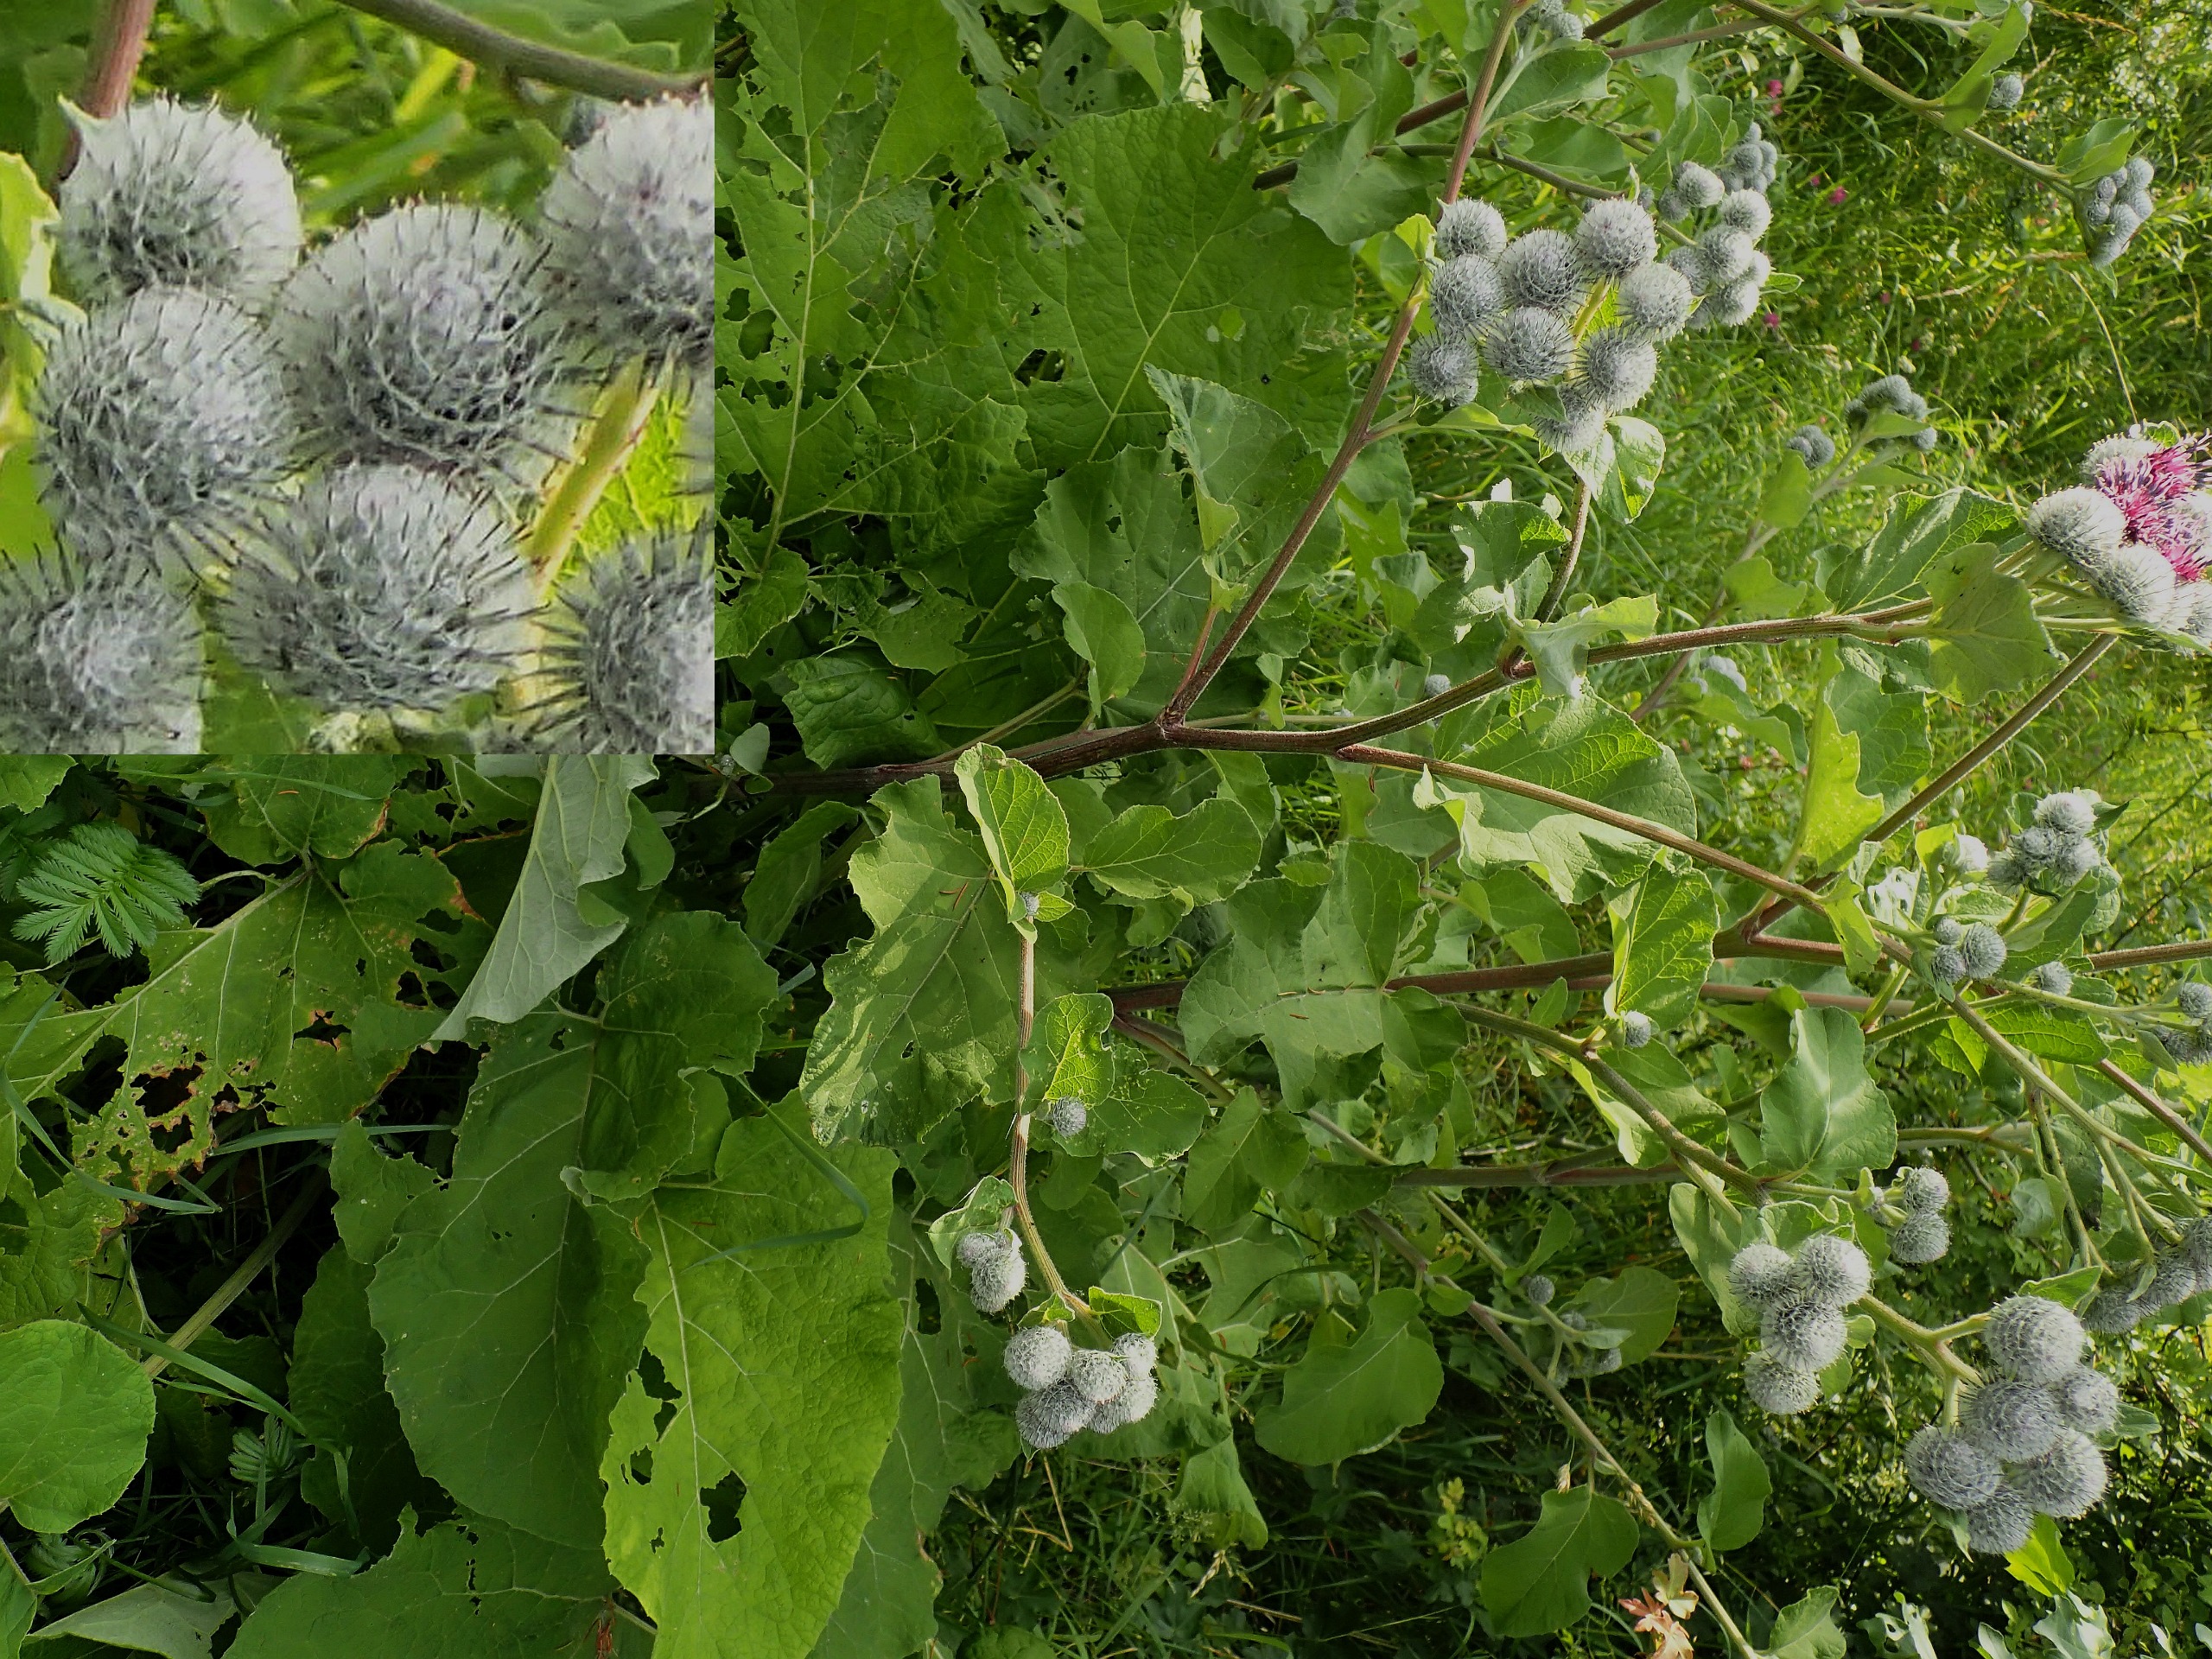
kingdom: Plantae
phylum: Tracheophyta
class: Magnoliopsida
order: Asterales
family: Asteraceae
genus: Arctium
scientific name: Arctium tomentosum
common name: Filtet burre
